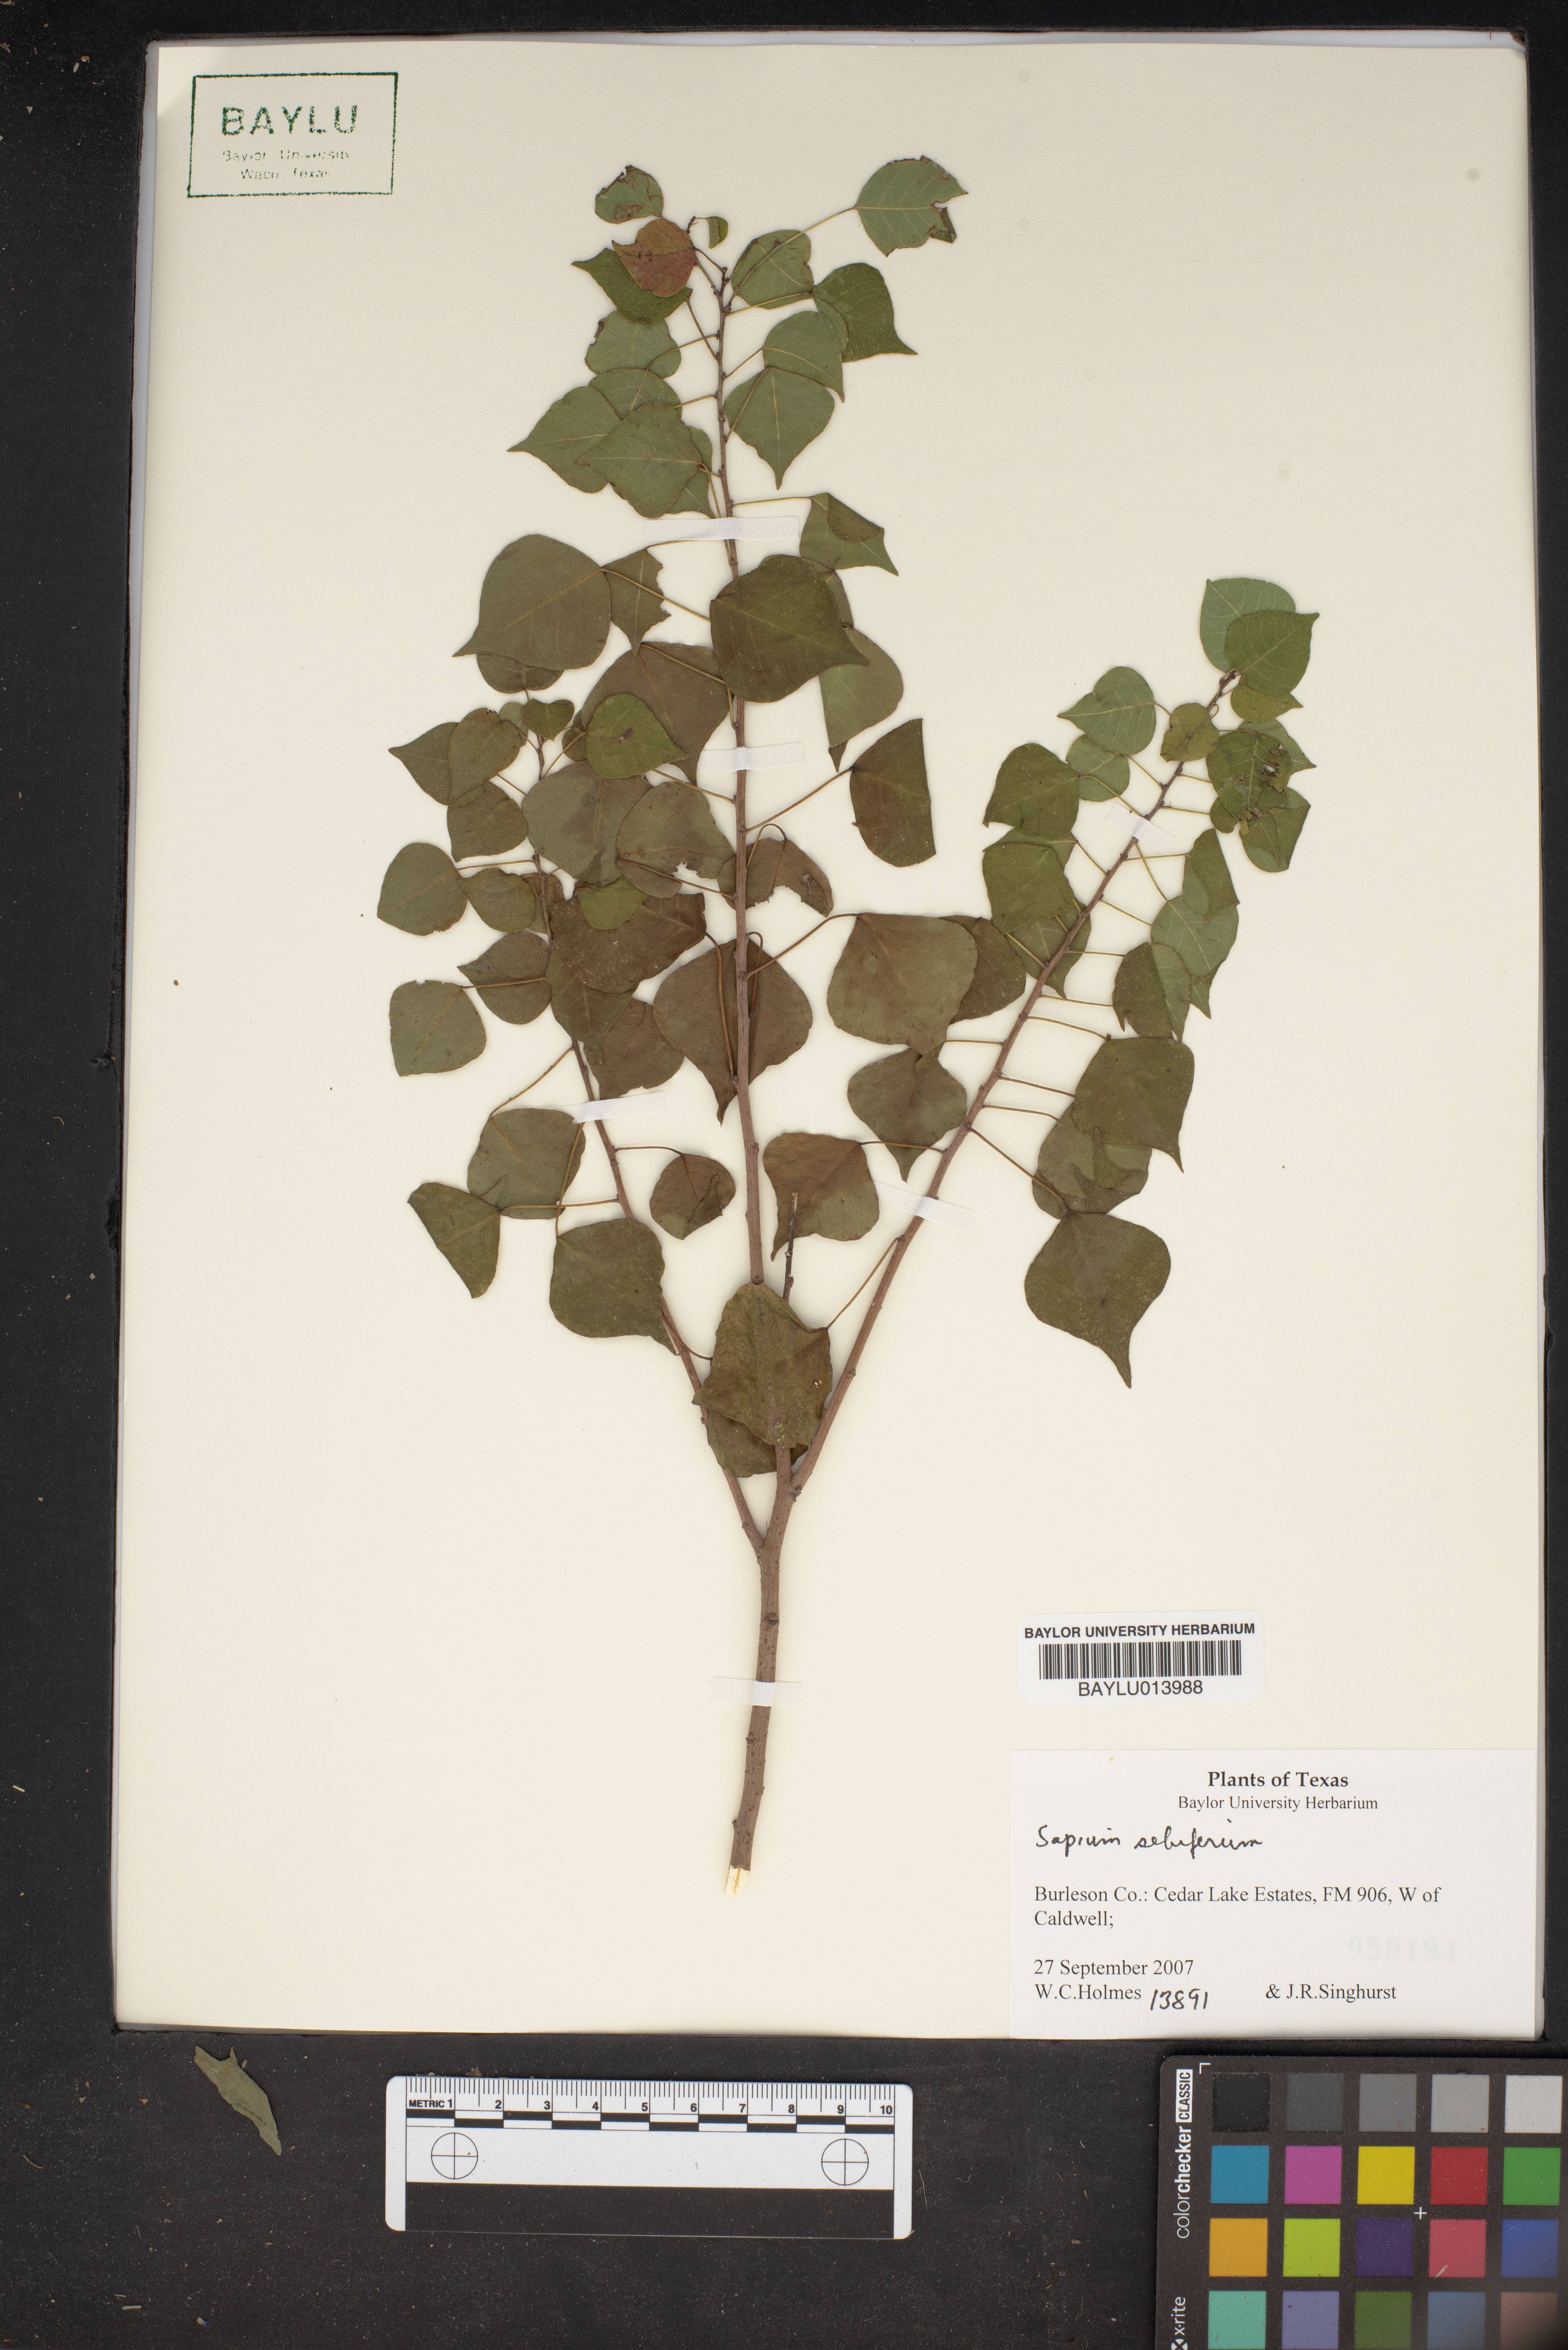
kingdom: Plantae
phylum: Tracheophyta
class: Magnoliopsida
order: Malpighiales
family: Euphorbiaceae
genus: Triadica
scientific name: Triadica sebifera
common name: Chinese tallow
